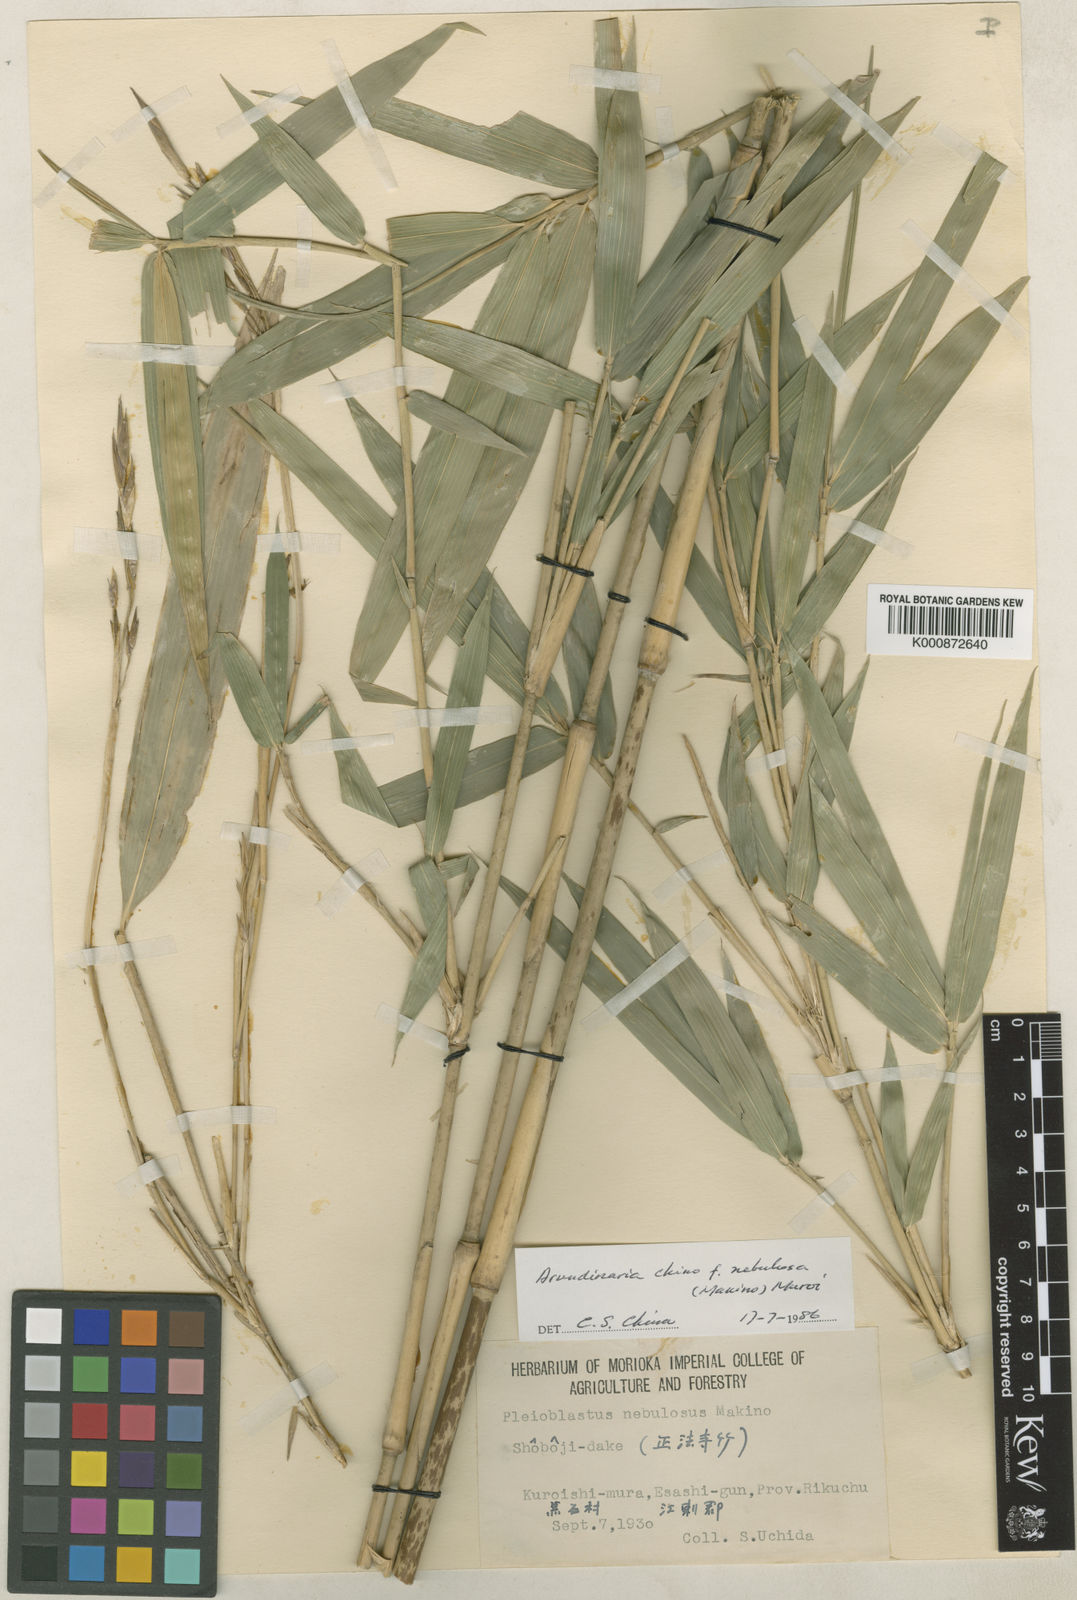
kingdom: Plantae
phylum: Tracheophyta
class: Liliopsida
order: Poales
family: Poaceae
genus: Pleioblastus
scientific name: Pleioblastus argenteostriatus
